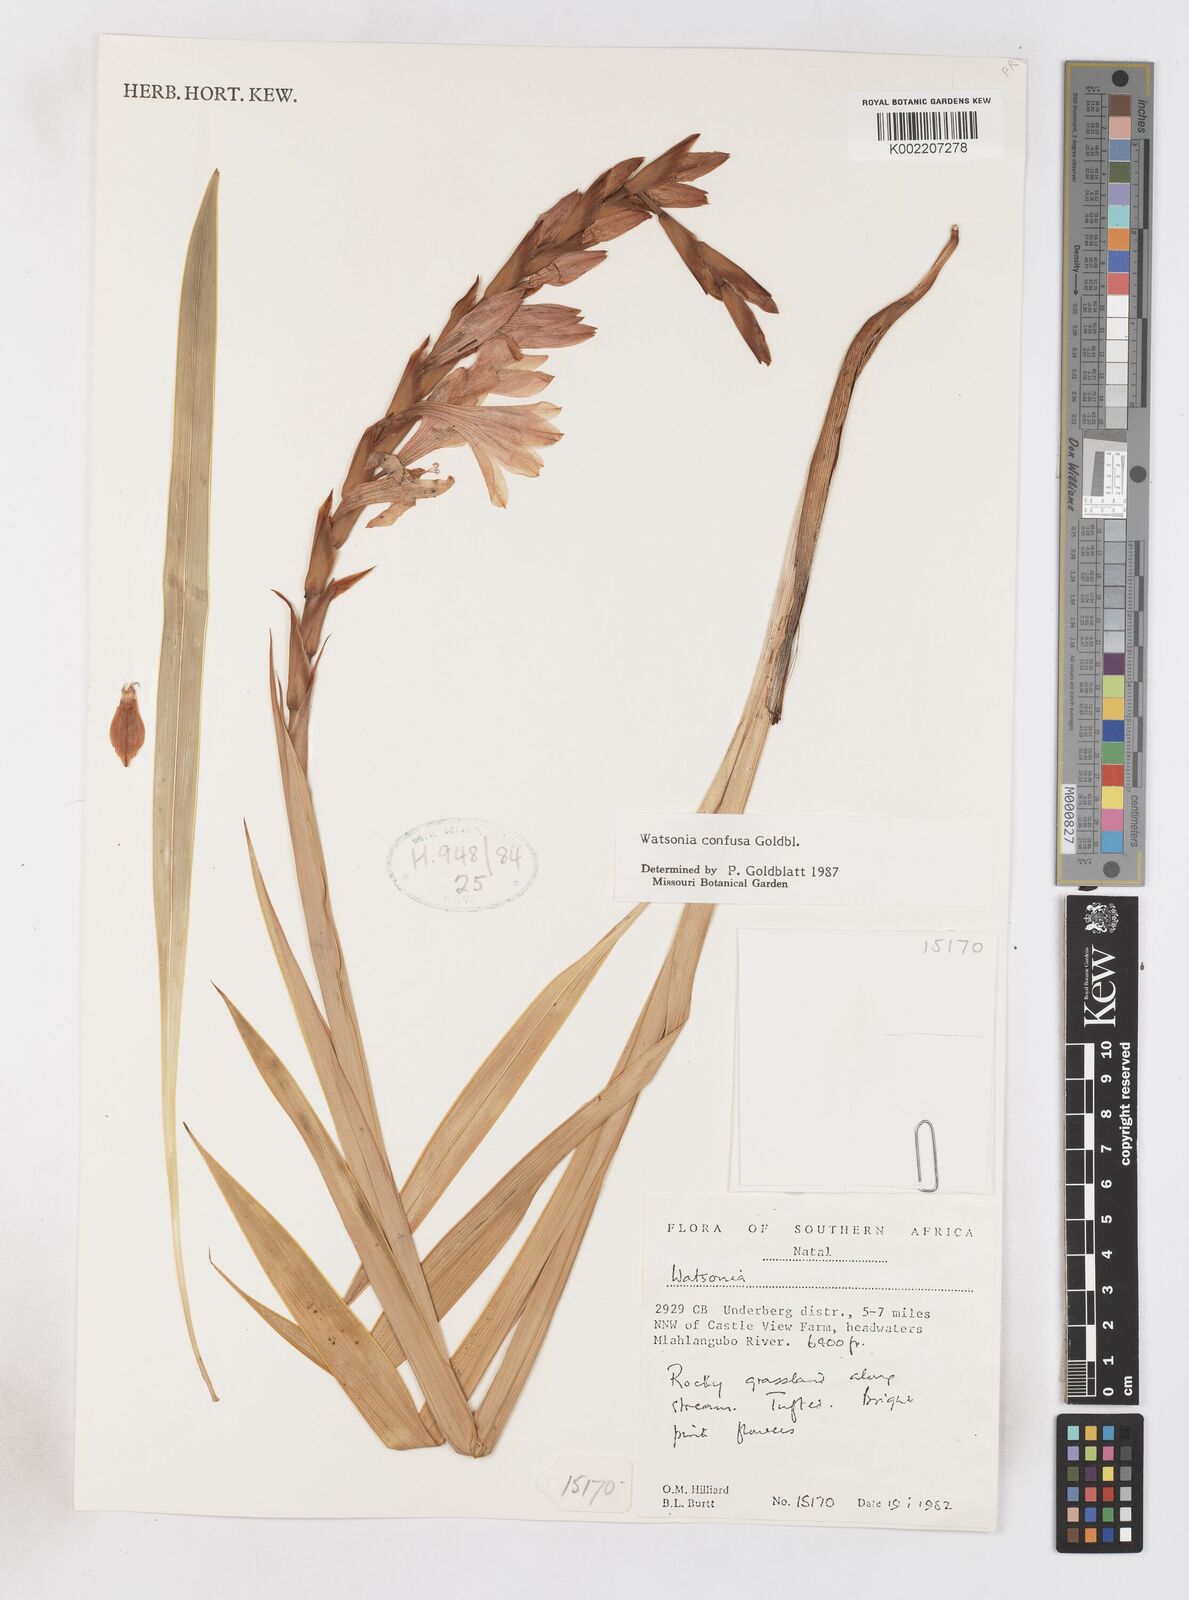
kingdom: Plantae
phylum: Tracheophyta
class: Liliopsida
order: Asparagales
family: Iridaceae
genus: Watsonia
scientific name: Watsonia confusa
